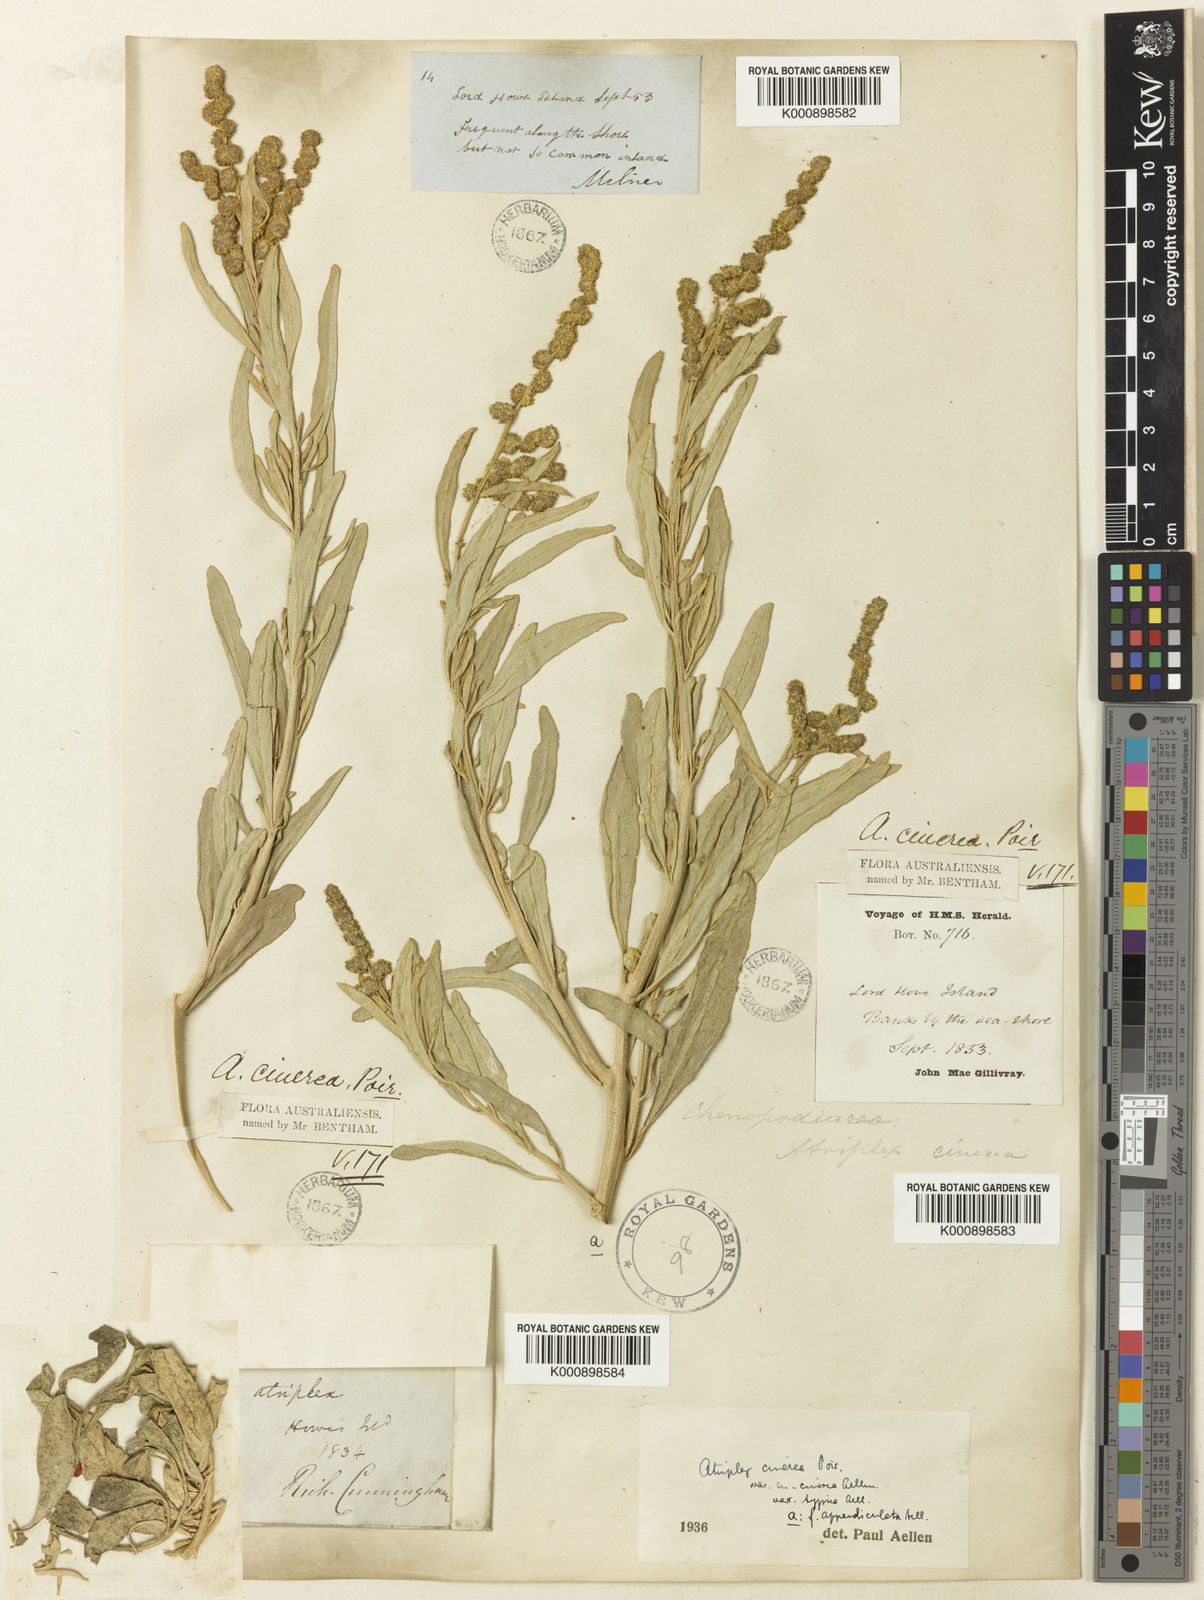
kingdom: Plantae
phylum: Tracheophyta
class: Magnoliopsida
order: Caryophyllales
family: Amaranthaceae
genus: Atriplex
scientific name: Atriplex cinerea
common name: Grey saltbush
